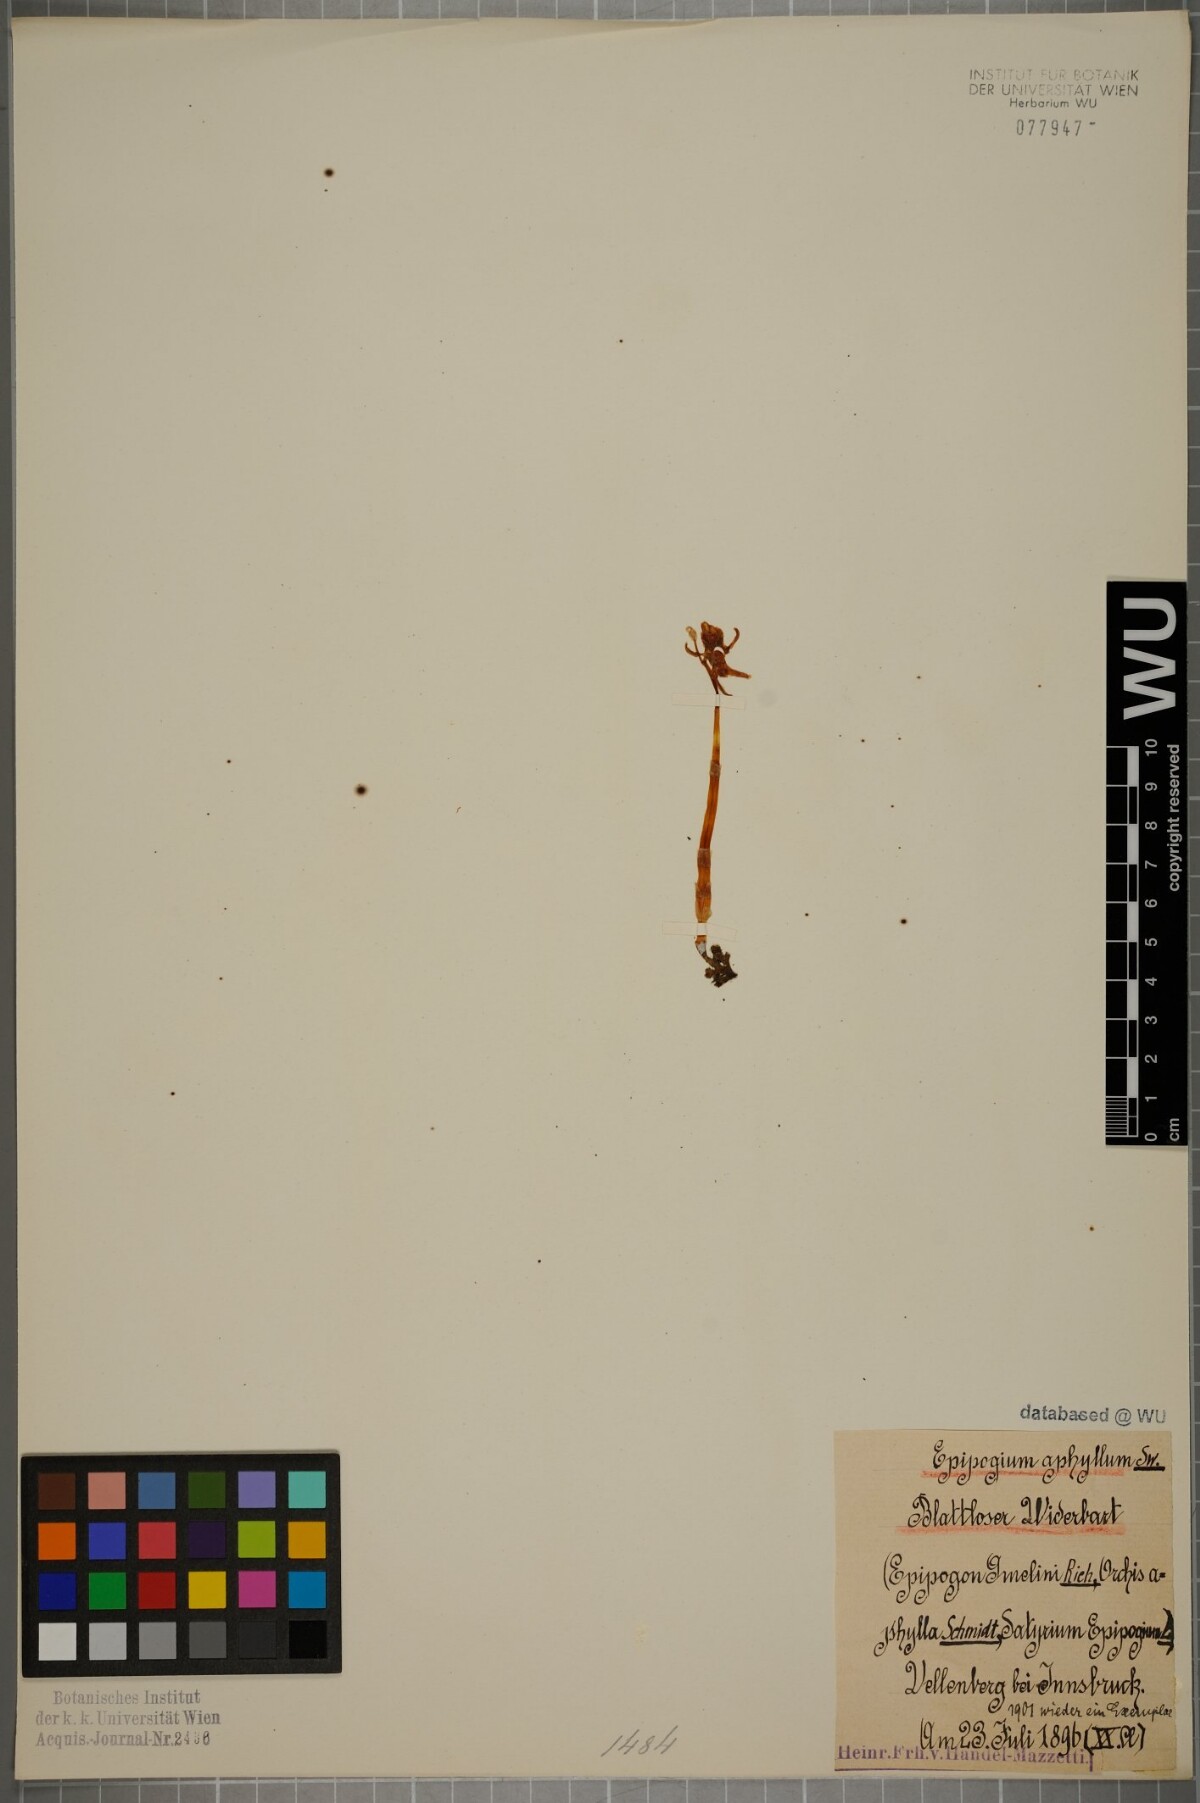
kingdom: Plantae
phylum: Tracheophyta
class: Liliopsida
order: Asparagales
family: Orchidaceae
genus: Epipogium
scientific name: Epipogium aphyllum
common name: Ghost orchid
